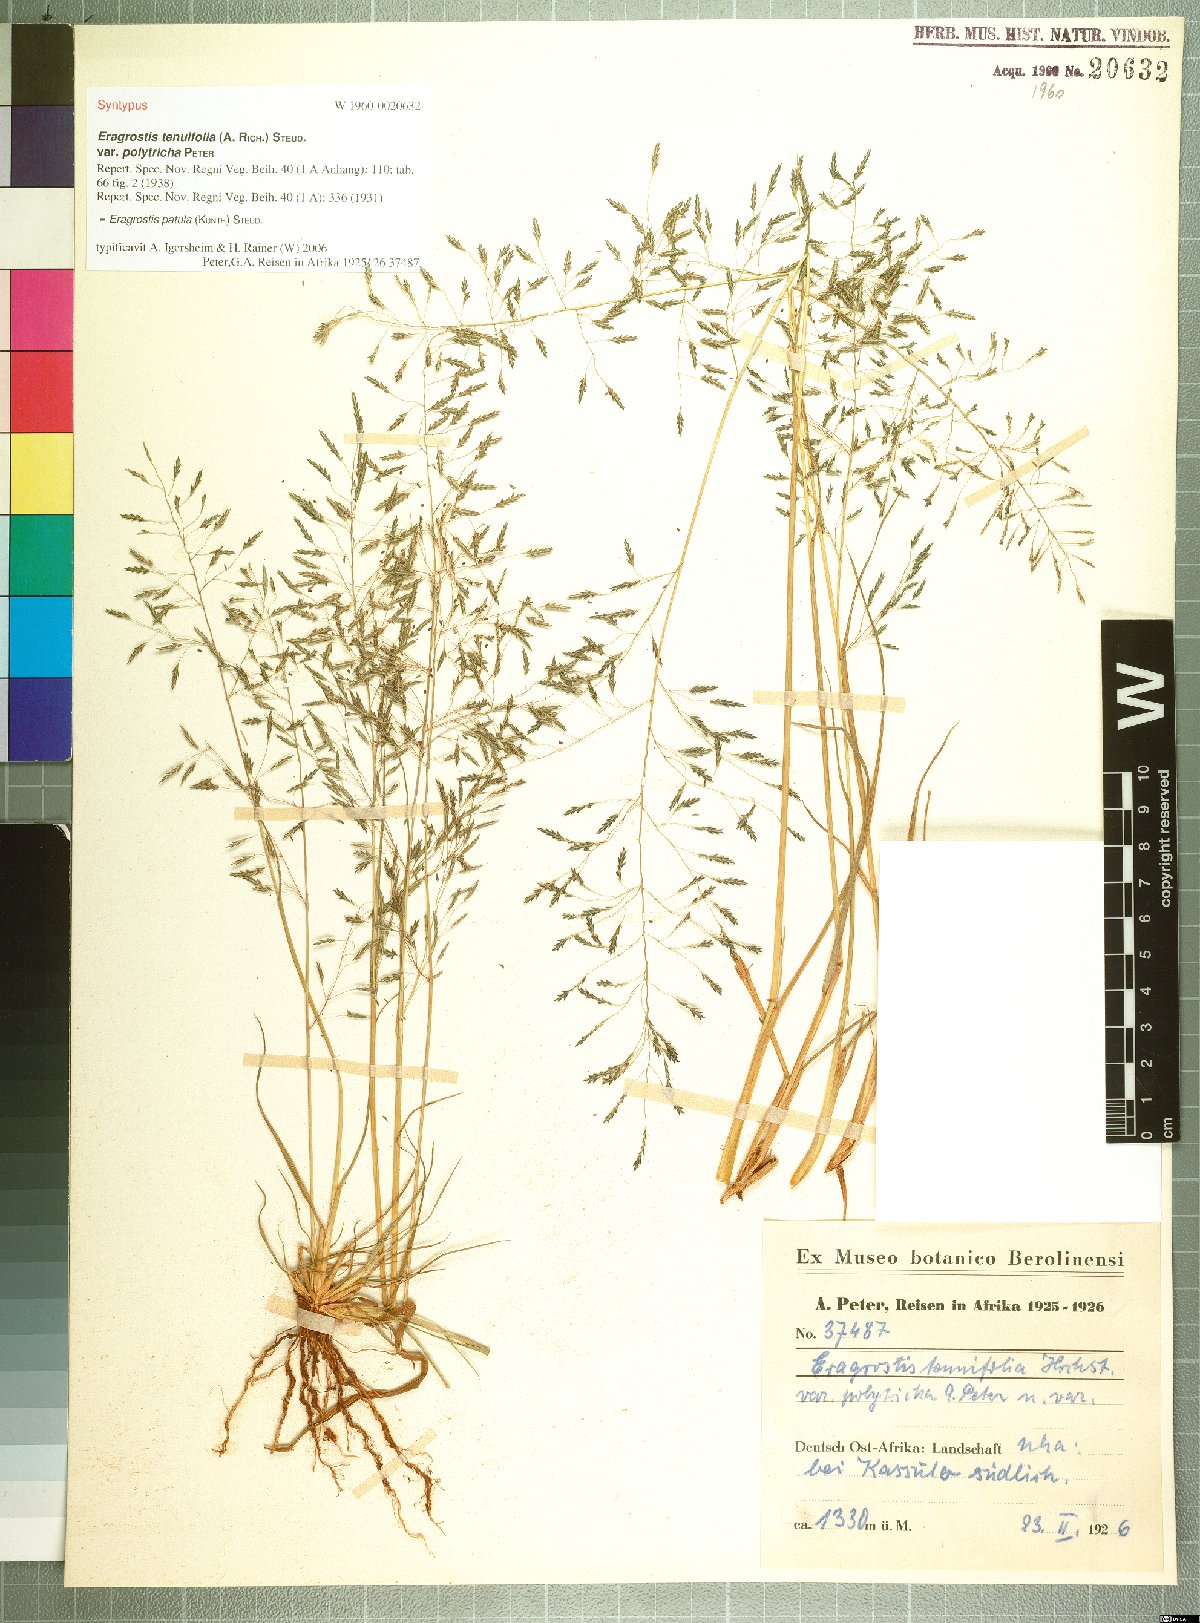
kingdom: Plantae
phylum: Tracheophyta
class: Liliopsida
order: Poales
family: Poaceae
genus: Eragrostis
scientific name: Eragrostis tenuifolia
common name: Elastic grass
